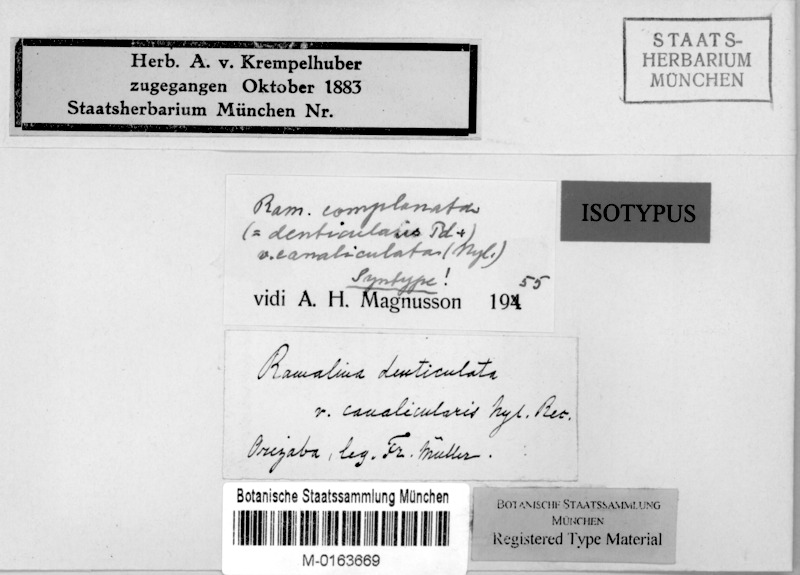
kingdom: Fungi
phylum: Ascomycota
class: Lecanoromycetes
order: Lecanorales
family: Ramalinaceae
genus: Ramalina
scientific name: Ramalina canalicularis
